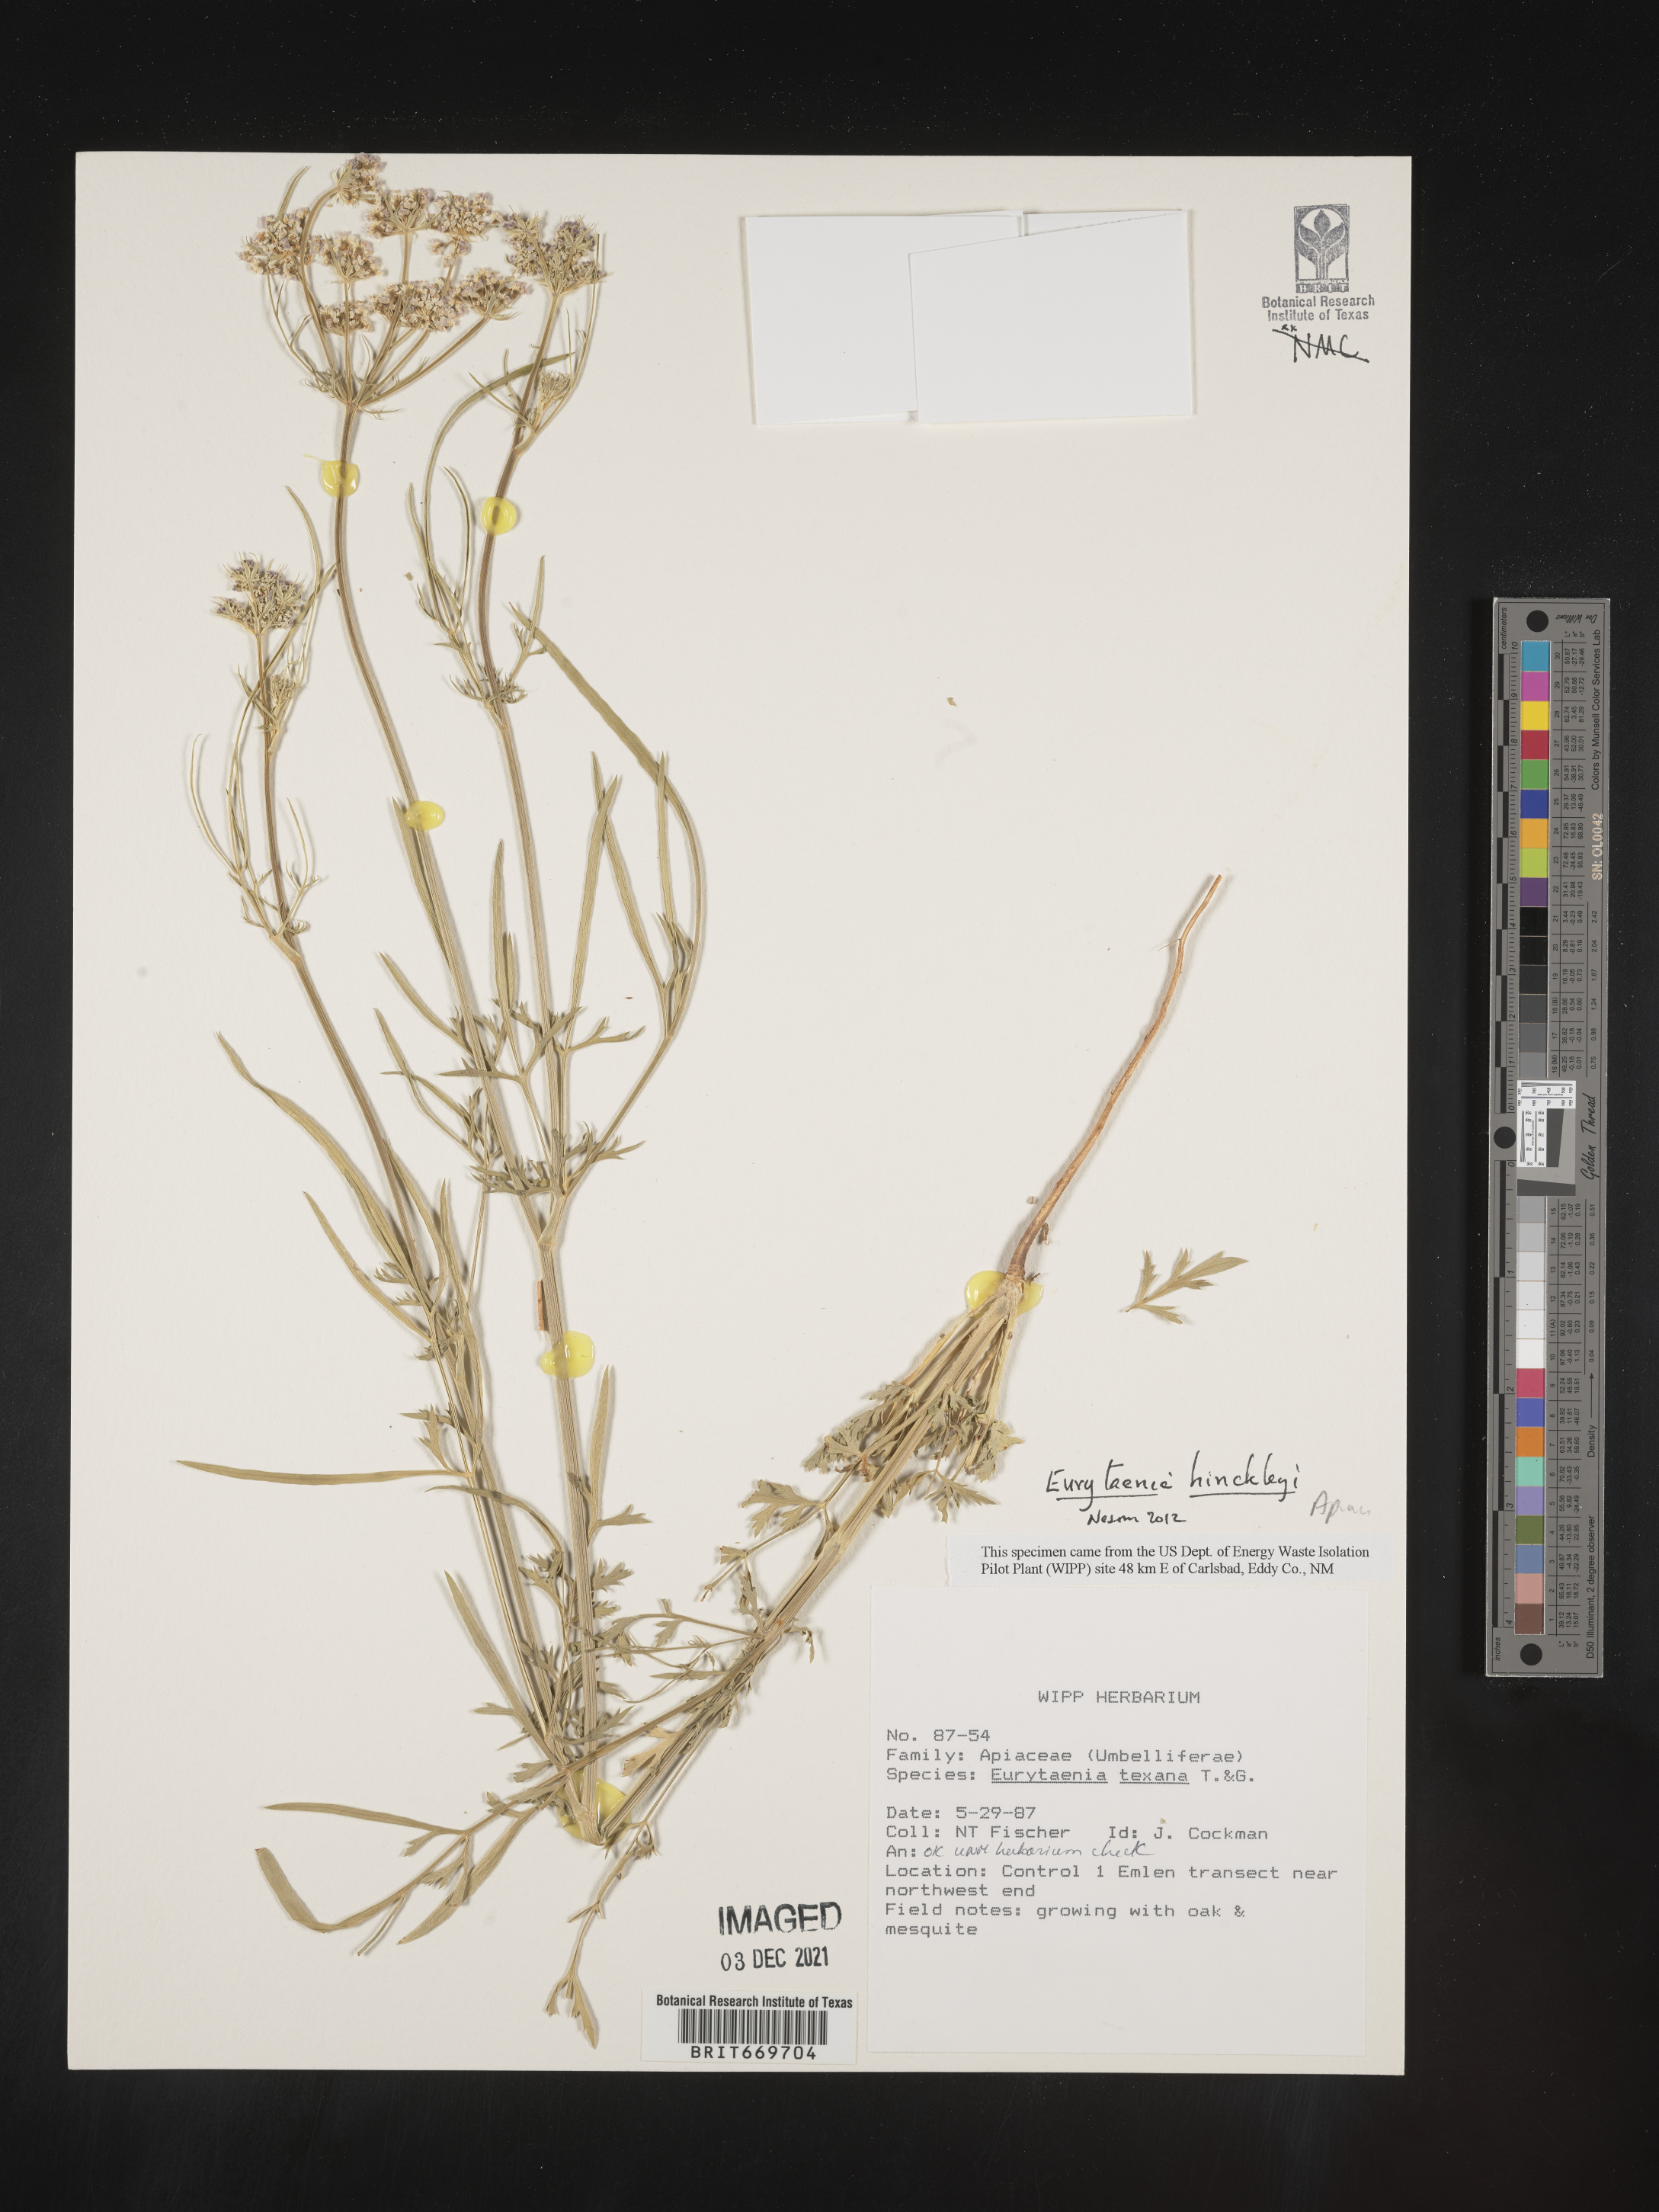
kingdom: Plantae
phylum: Tracheophyta
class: Magnoliopsida
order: Apiales
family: Apiaceae
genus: Eurytaenia
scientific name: Eurytaenia hinckleyi
